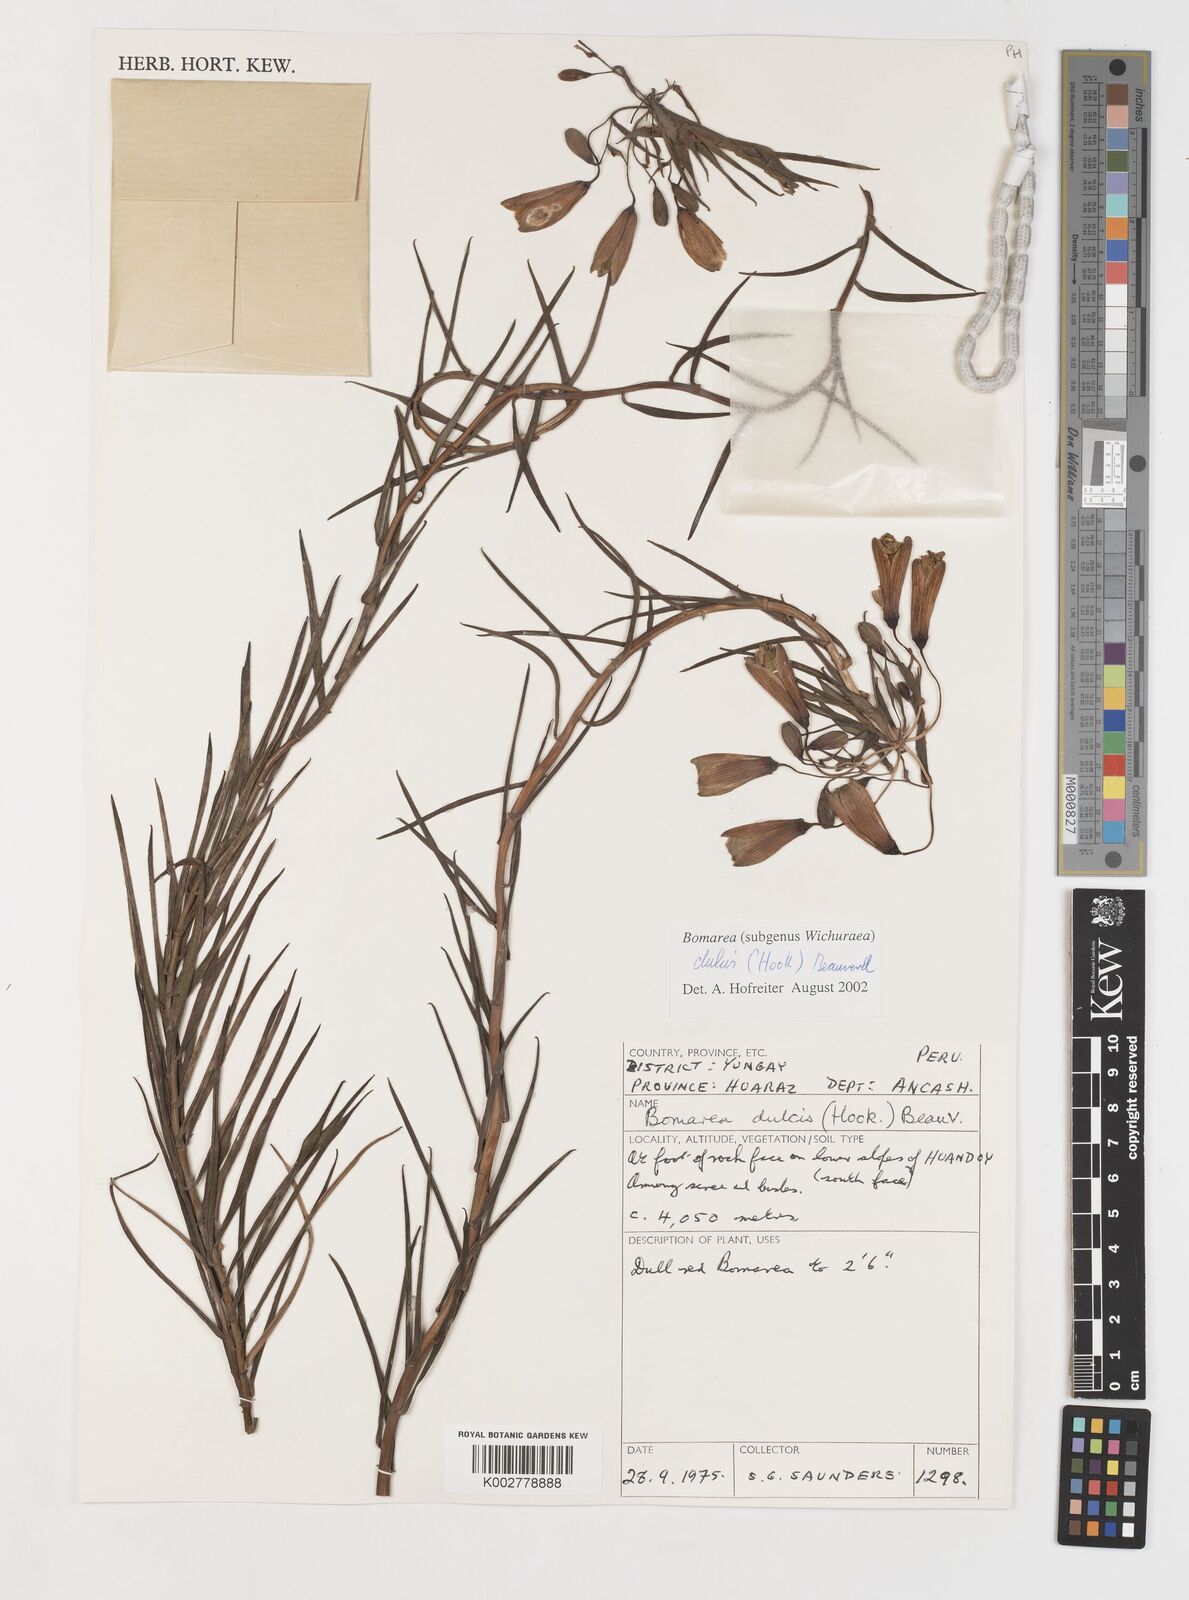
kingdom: Plantae
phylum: Tracheophyta
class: Liliopsida
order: Liliales
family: Alstroemeriaceae
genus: Bomarea
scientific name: Bomarea dulcis
